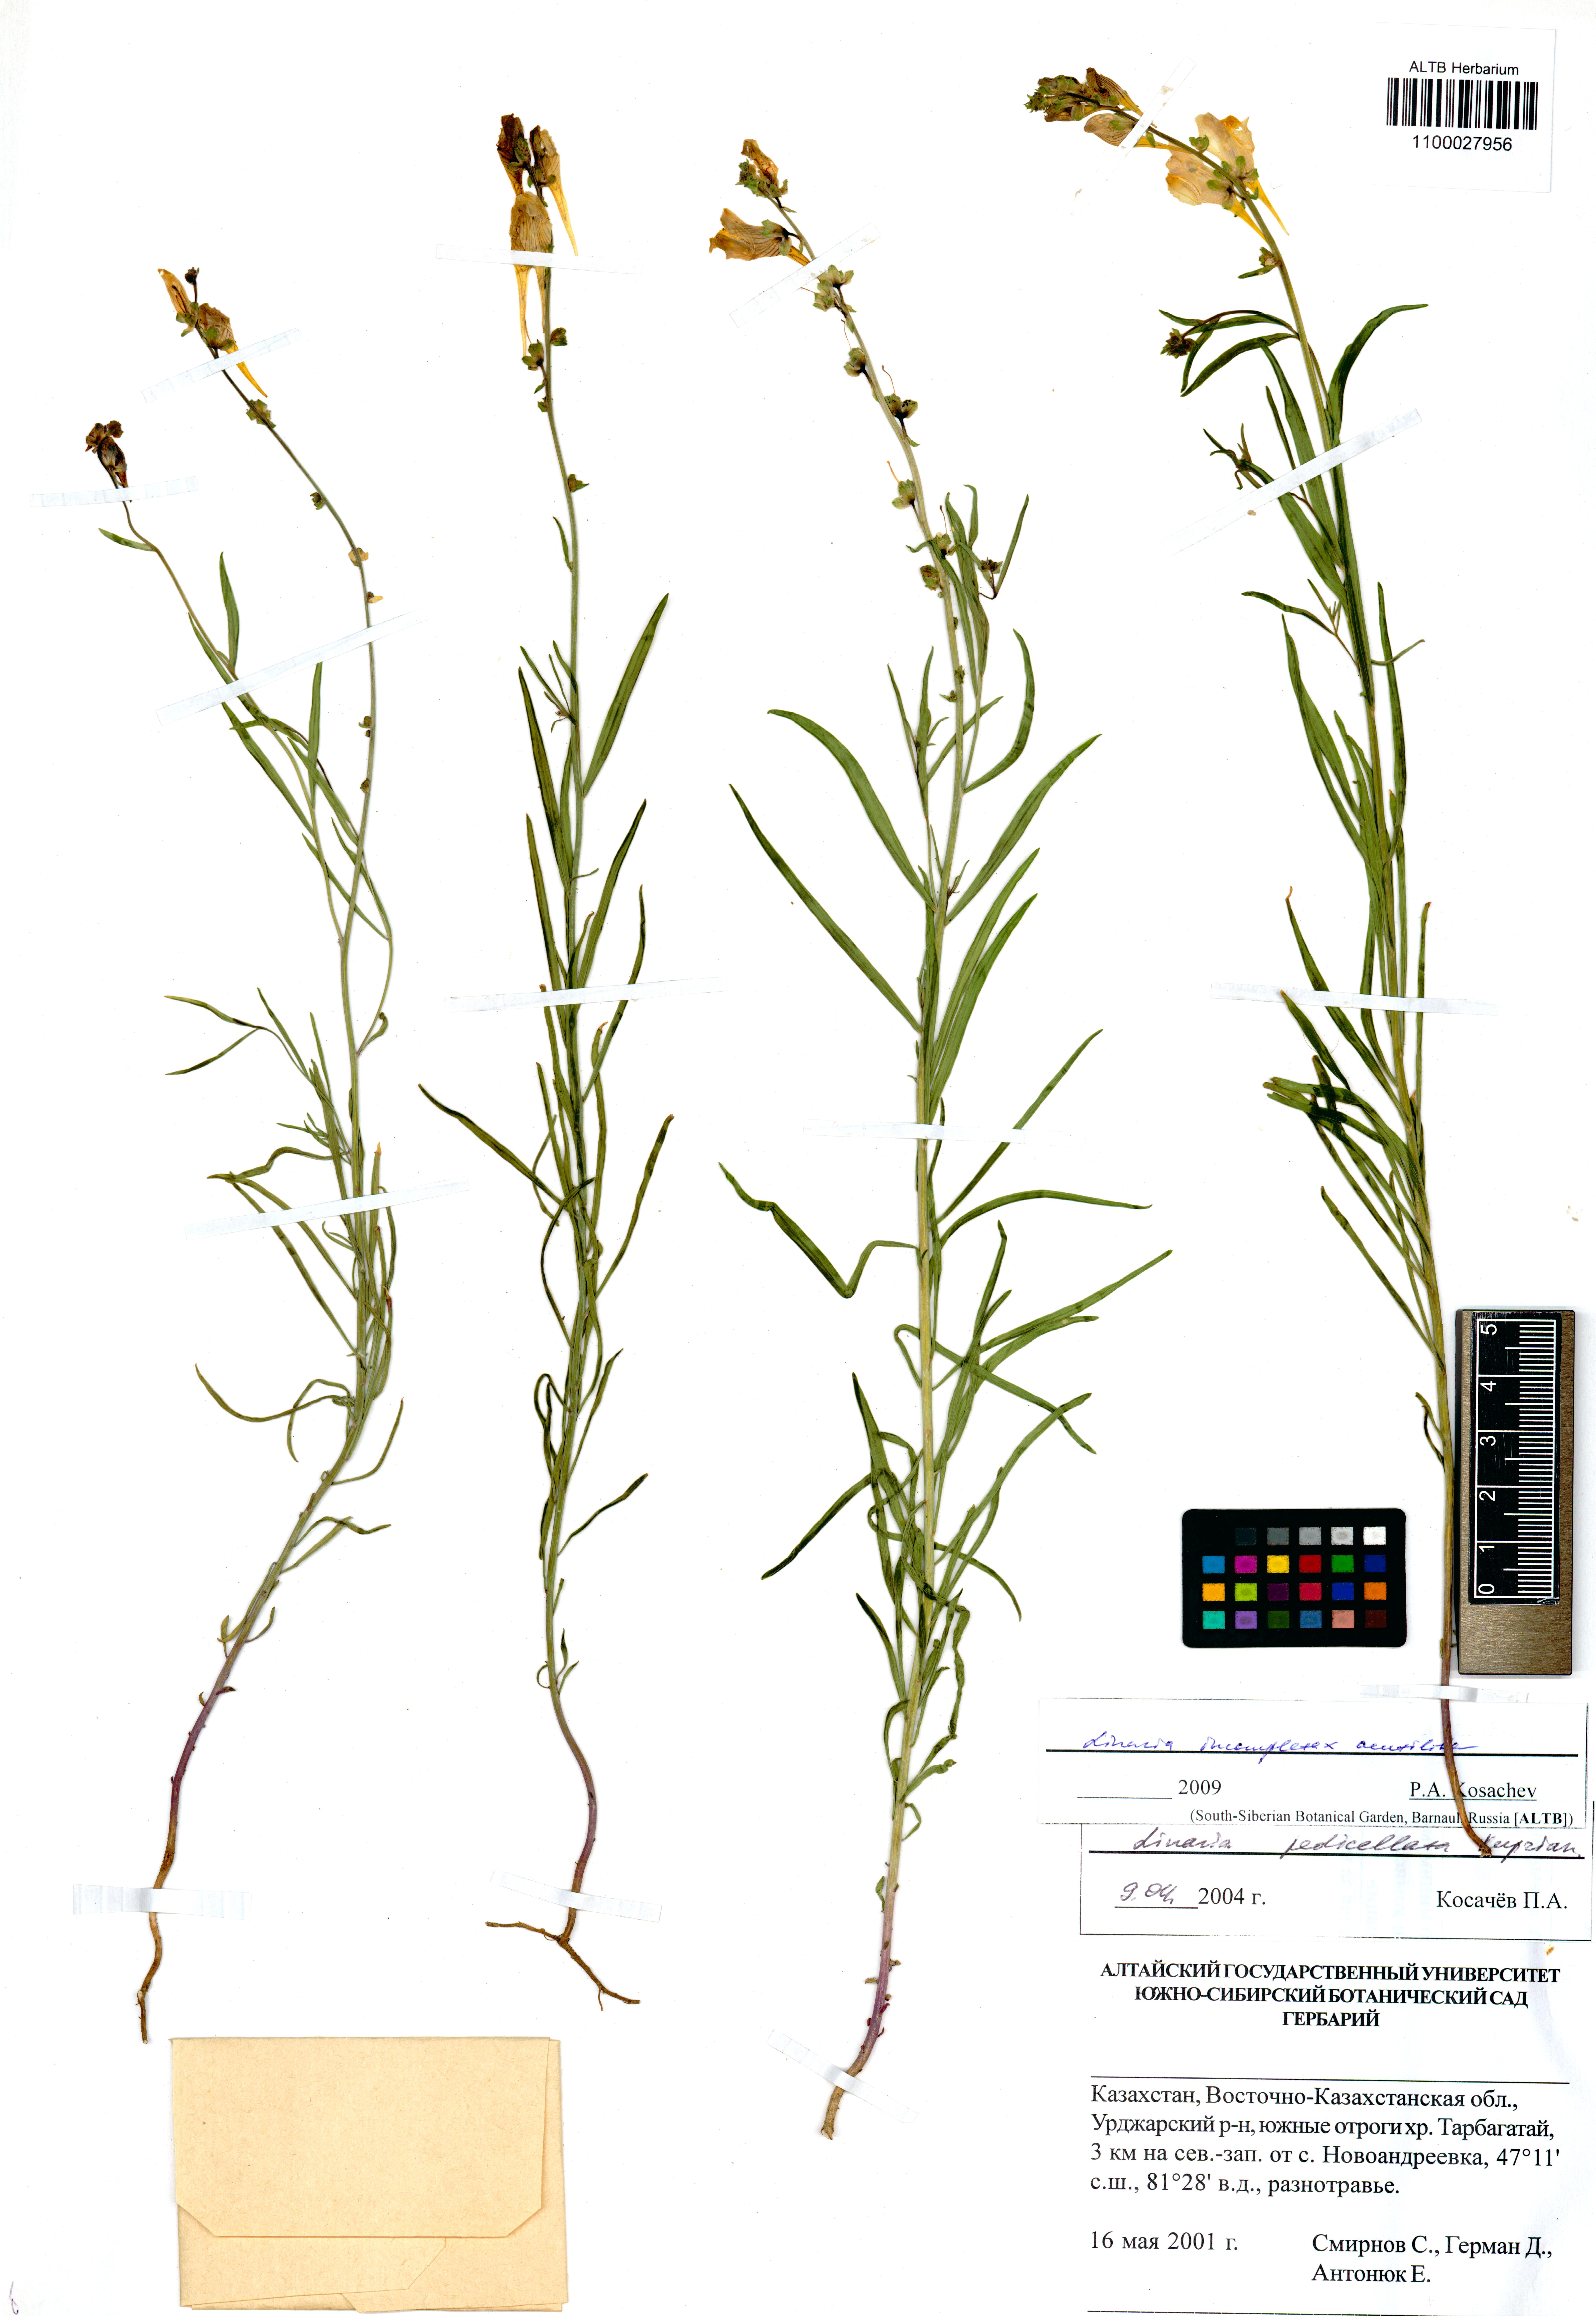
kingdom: Plantae
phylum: Tracheophyta
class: Magnoliopsida
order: Lamiales
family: Plantaginaceae
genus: Linaria
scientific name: Linaria incompleta
